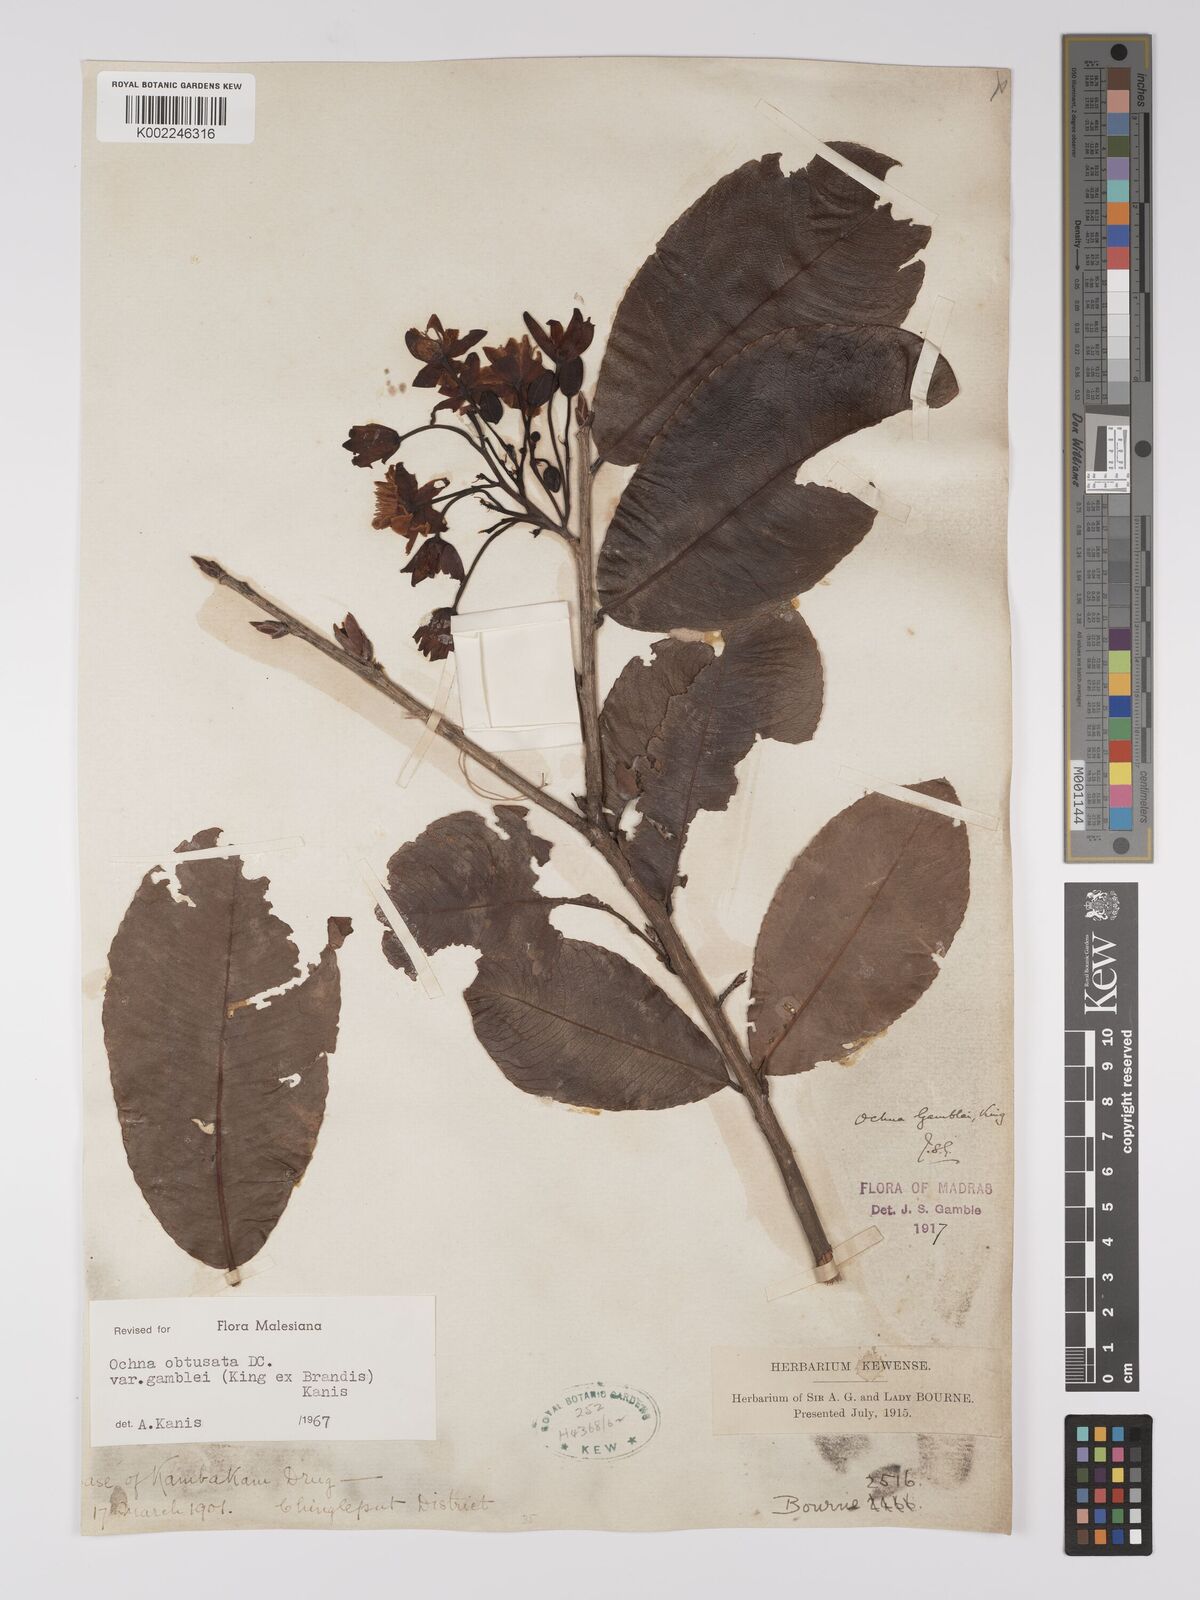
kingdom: Plantae
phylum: Tracheophyta
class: Magnoliopsida
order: Malpighiales
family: Ochnaceae
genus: Ochna
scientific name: Ochna obtusata
